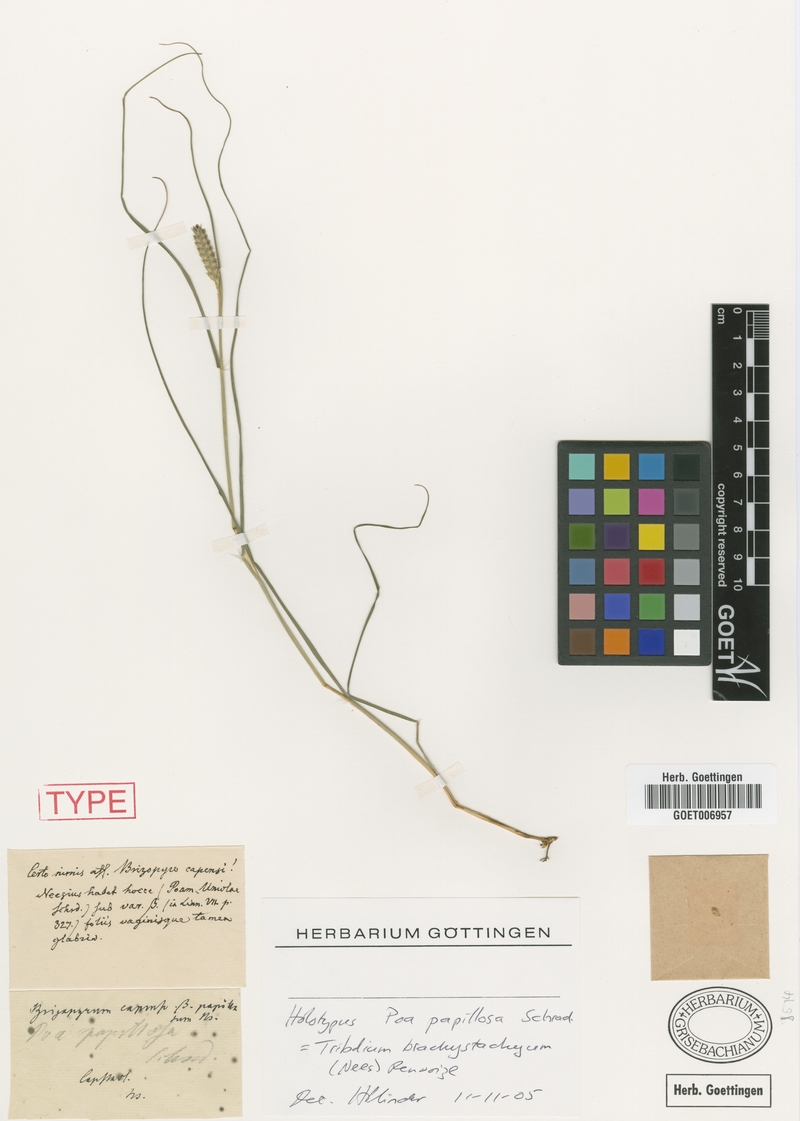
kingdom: Plantae
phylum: Tracheophyta
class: Liliopsida
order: Poales
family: Poaceae
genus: Tribolium
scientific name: Tribolium brachystachyum
